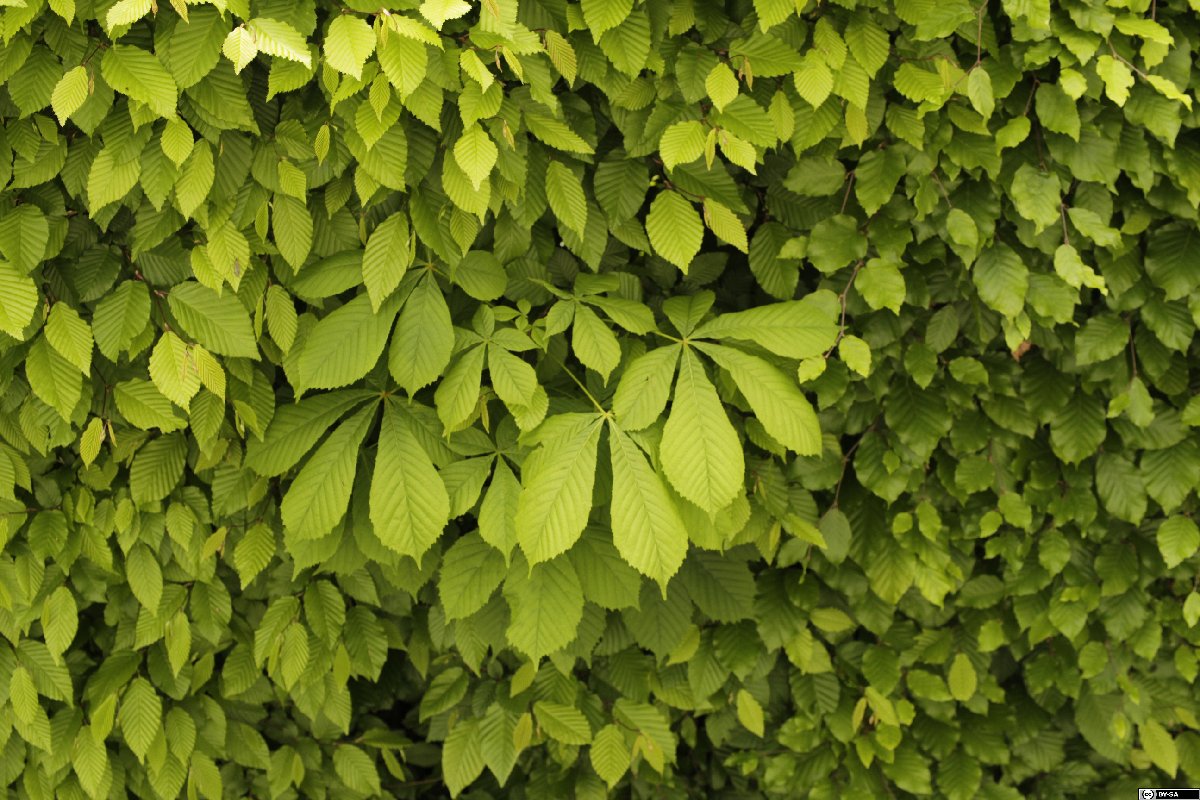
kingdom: Plantae
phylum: Tracheophyta
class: Magnoliopsida
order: Sapindales
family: Sapindaceae
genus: Aesculus
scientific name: Aesculus hippocastanum
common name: Horse-chestnut
